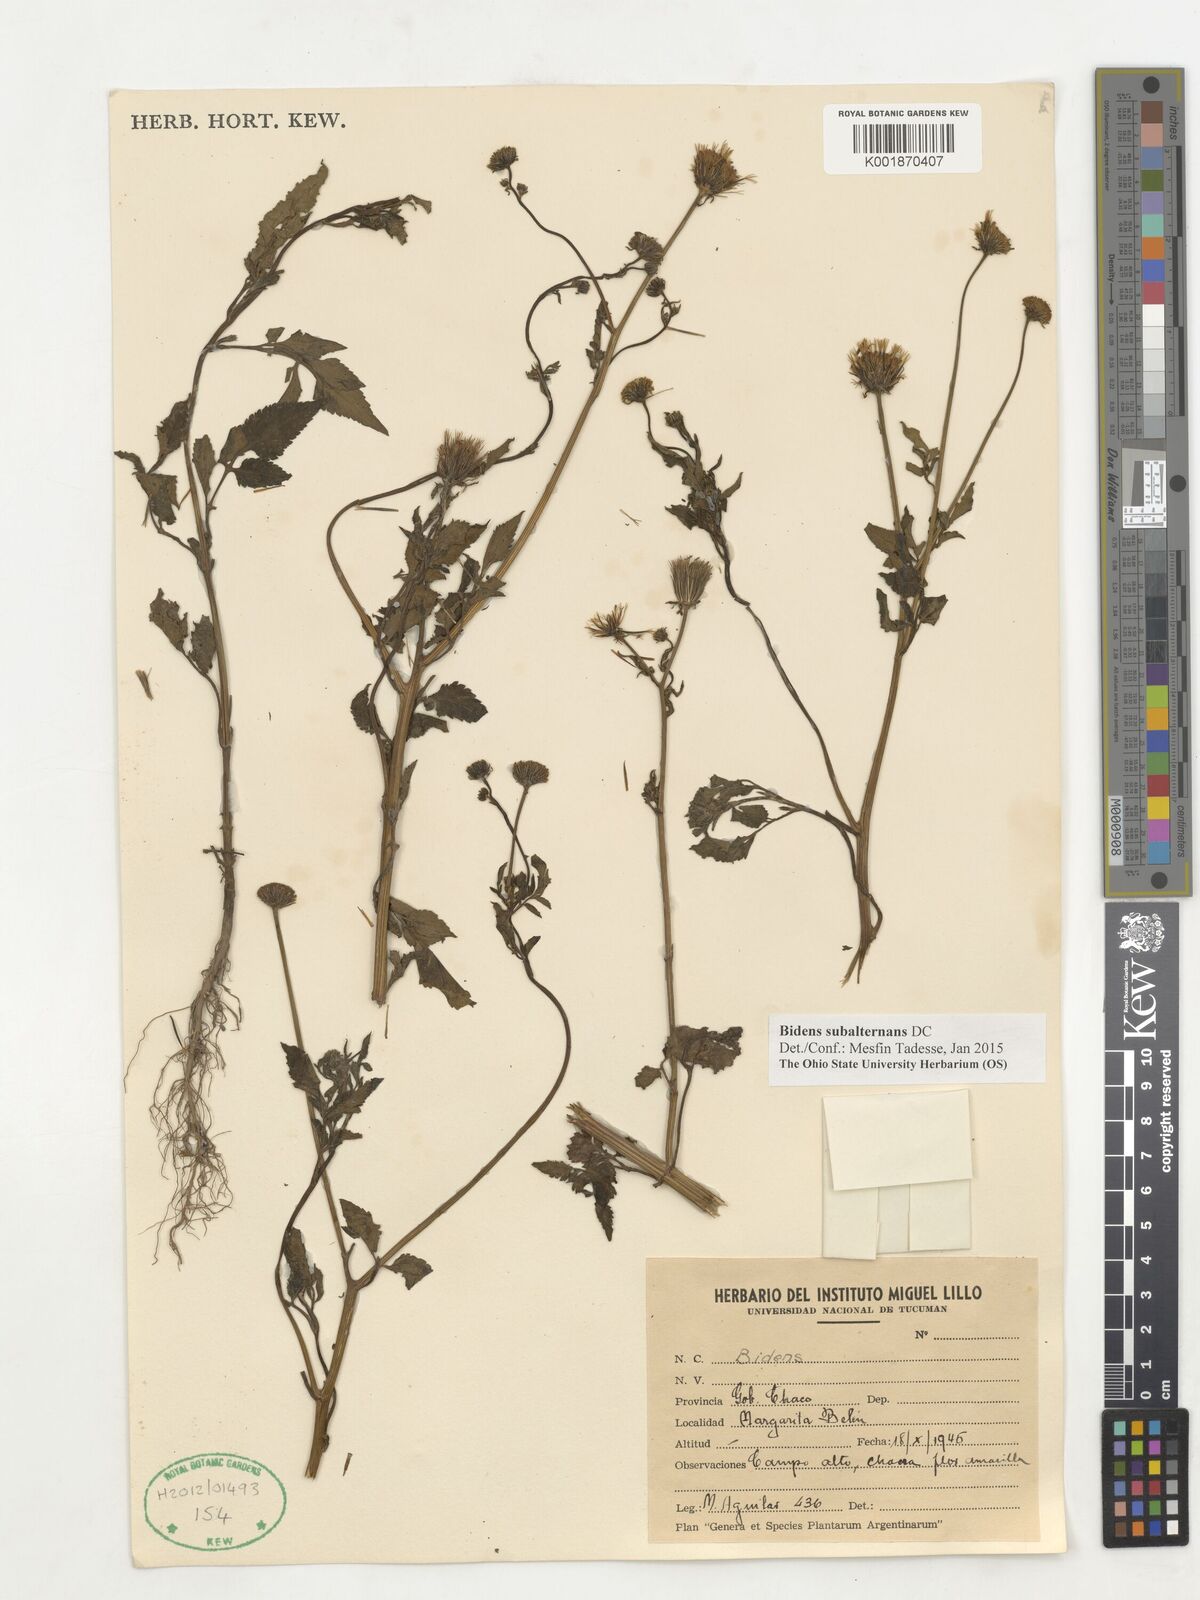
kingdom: Plantae
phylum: Tracheophyta
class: Magnoliopsida
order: Asterales
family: Asteraceae
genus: Bidens
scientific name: Bidens subalternans
